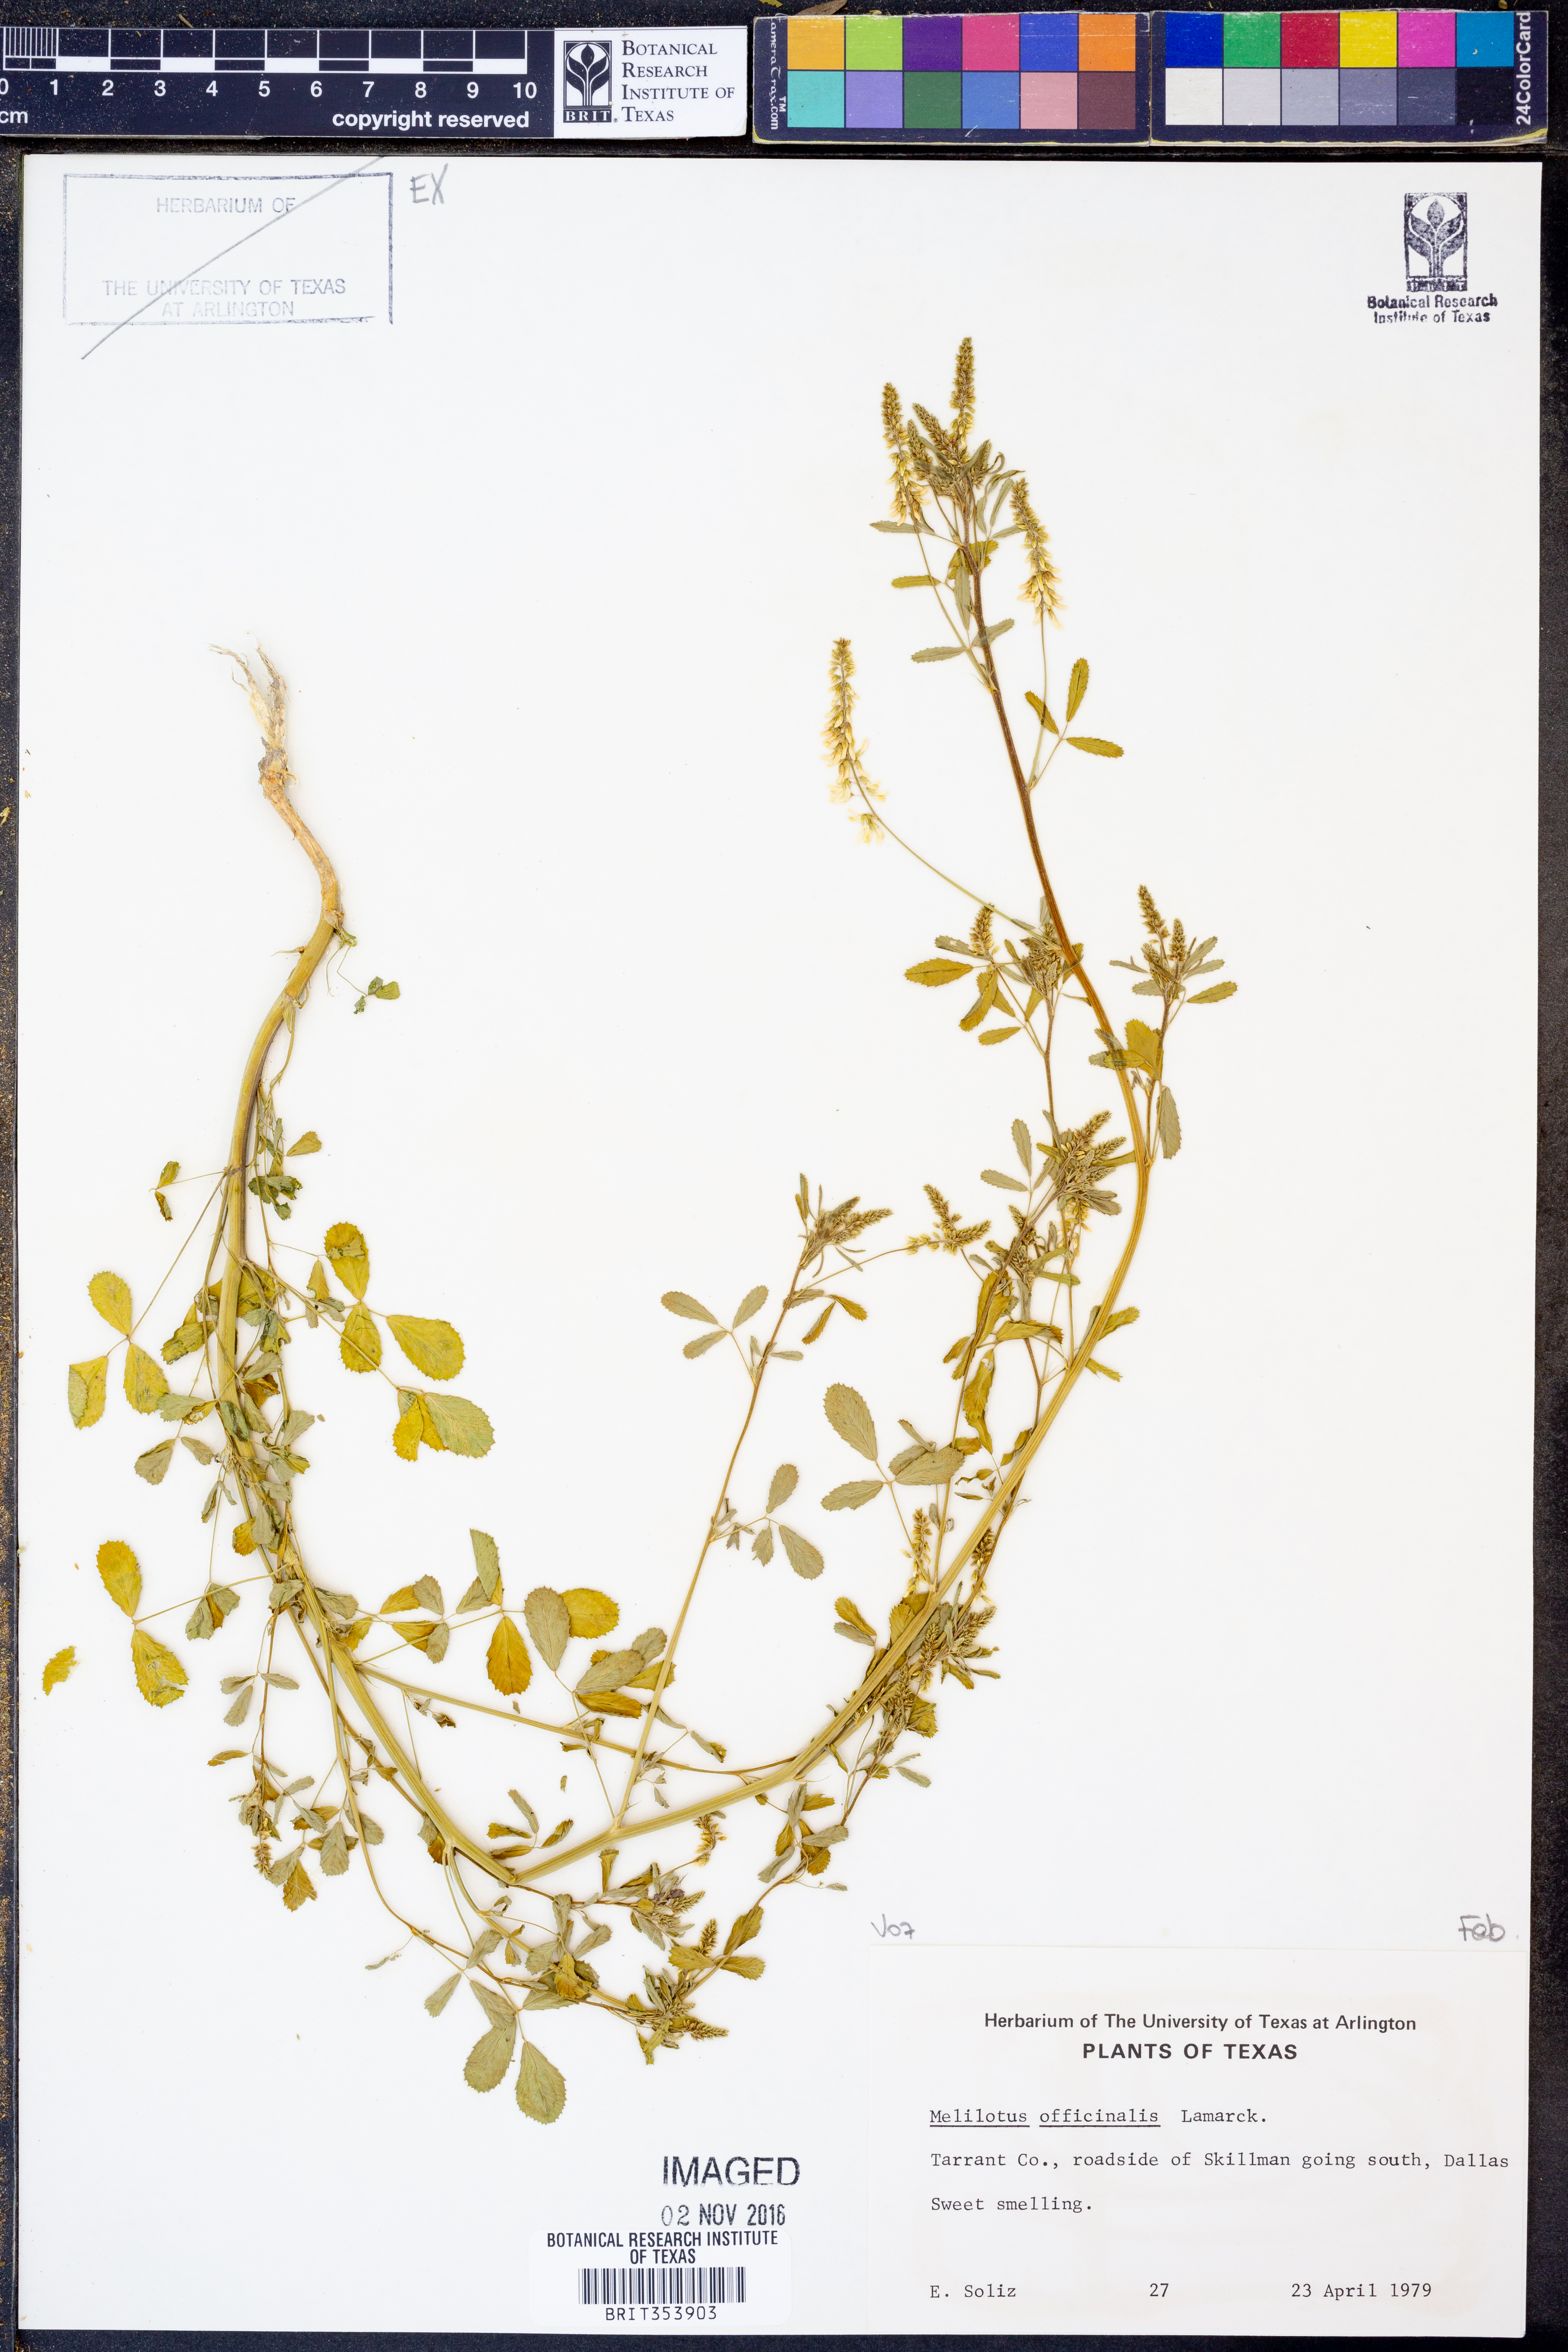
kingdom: Plantae
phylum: Tracheophyta
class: Magnoliopsida
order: Fabales
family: Fabaceae
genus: Melilotus
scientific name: Melilotus officinalis
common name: Sweetclover
